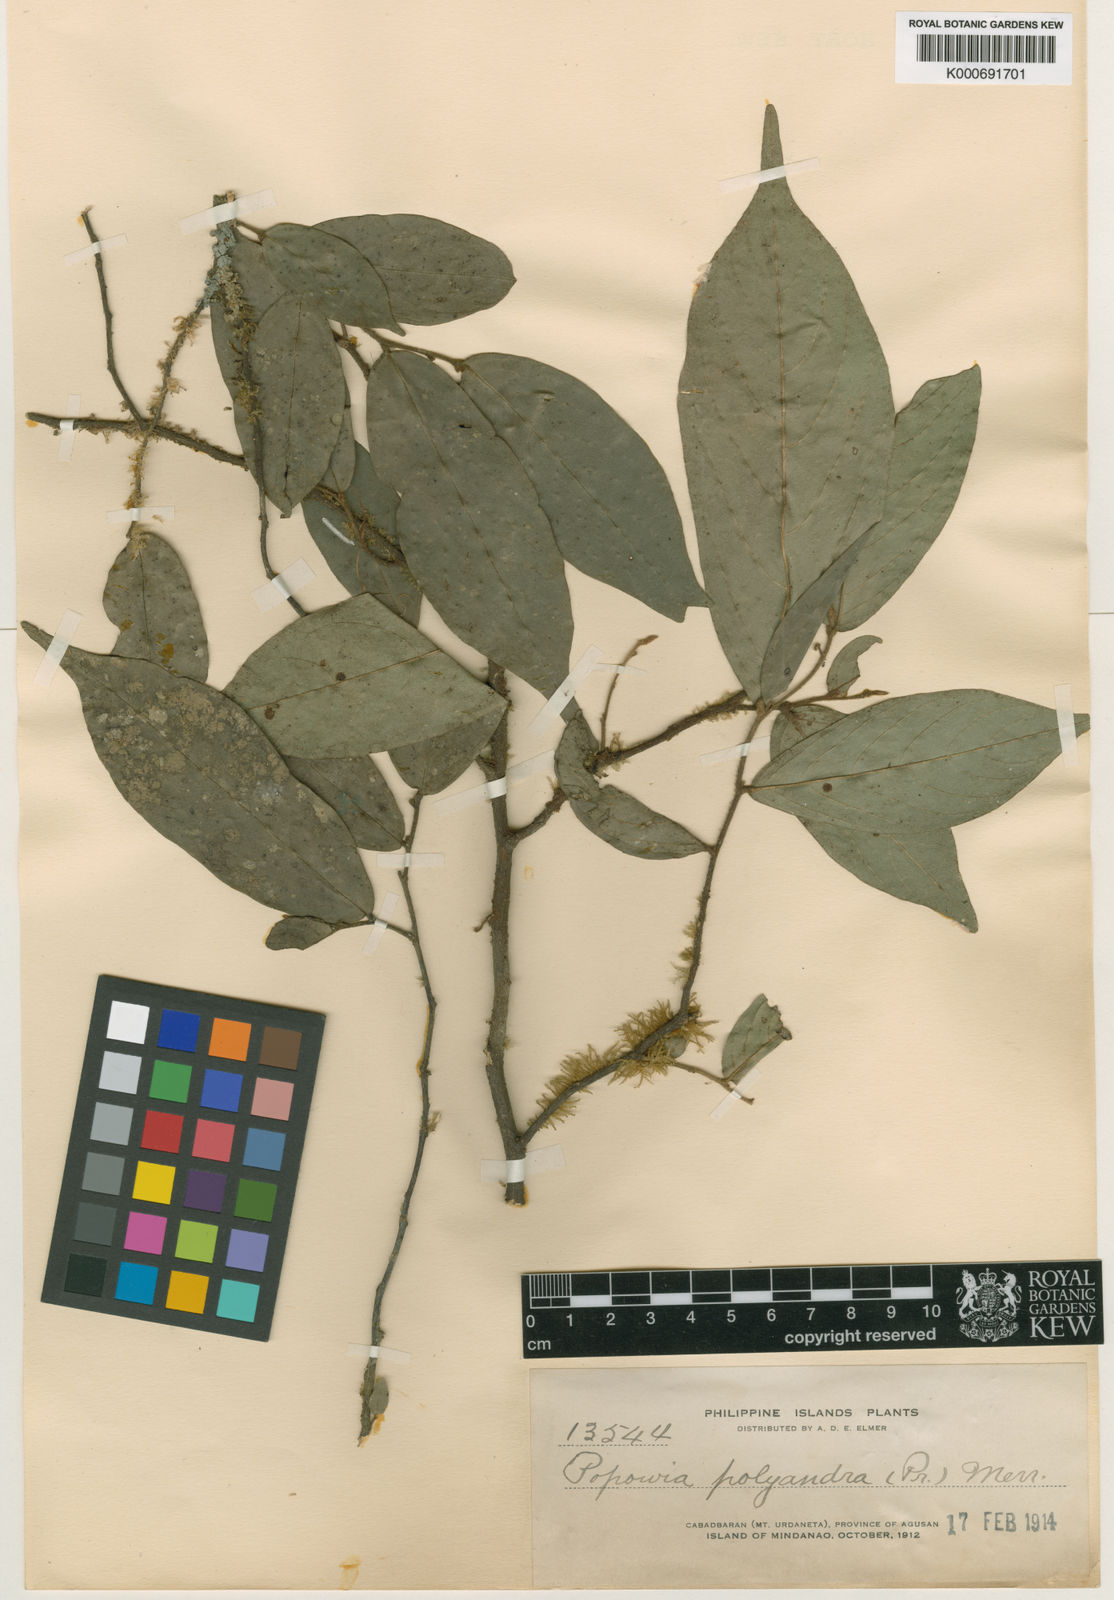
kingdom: Plantae
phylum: Tracheophyta
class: Magnoliopsida
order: Magnoliales
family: Annonaceae
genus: Popowia
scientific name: Popowia pisocarpa
